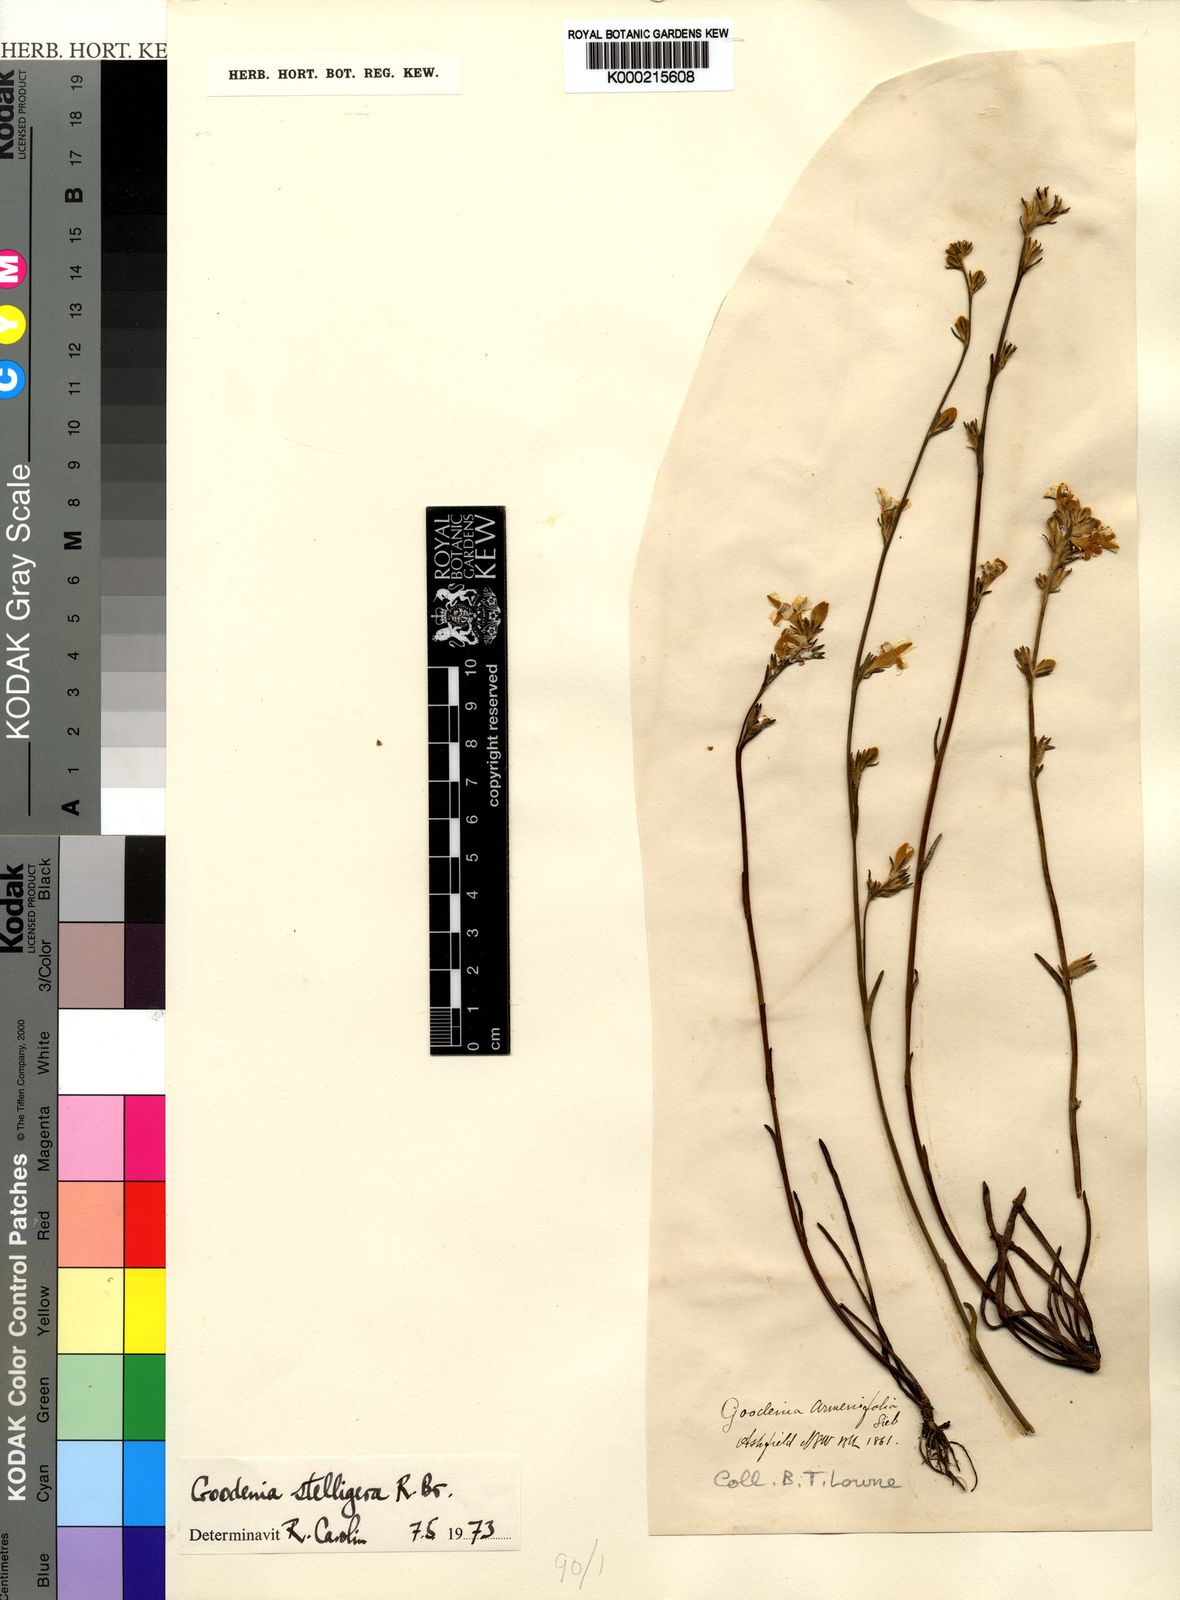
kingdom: Plantae
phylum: Tracheophyta
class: Magnoliopsida
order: Asterales
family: Goodeniaceae
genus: Goodenia
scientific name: Goodenia stelligera
